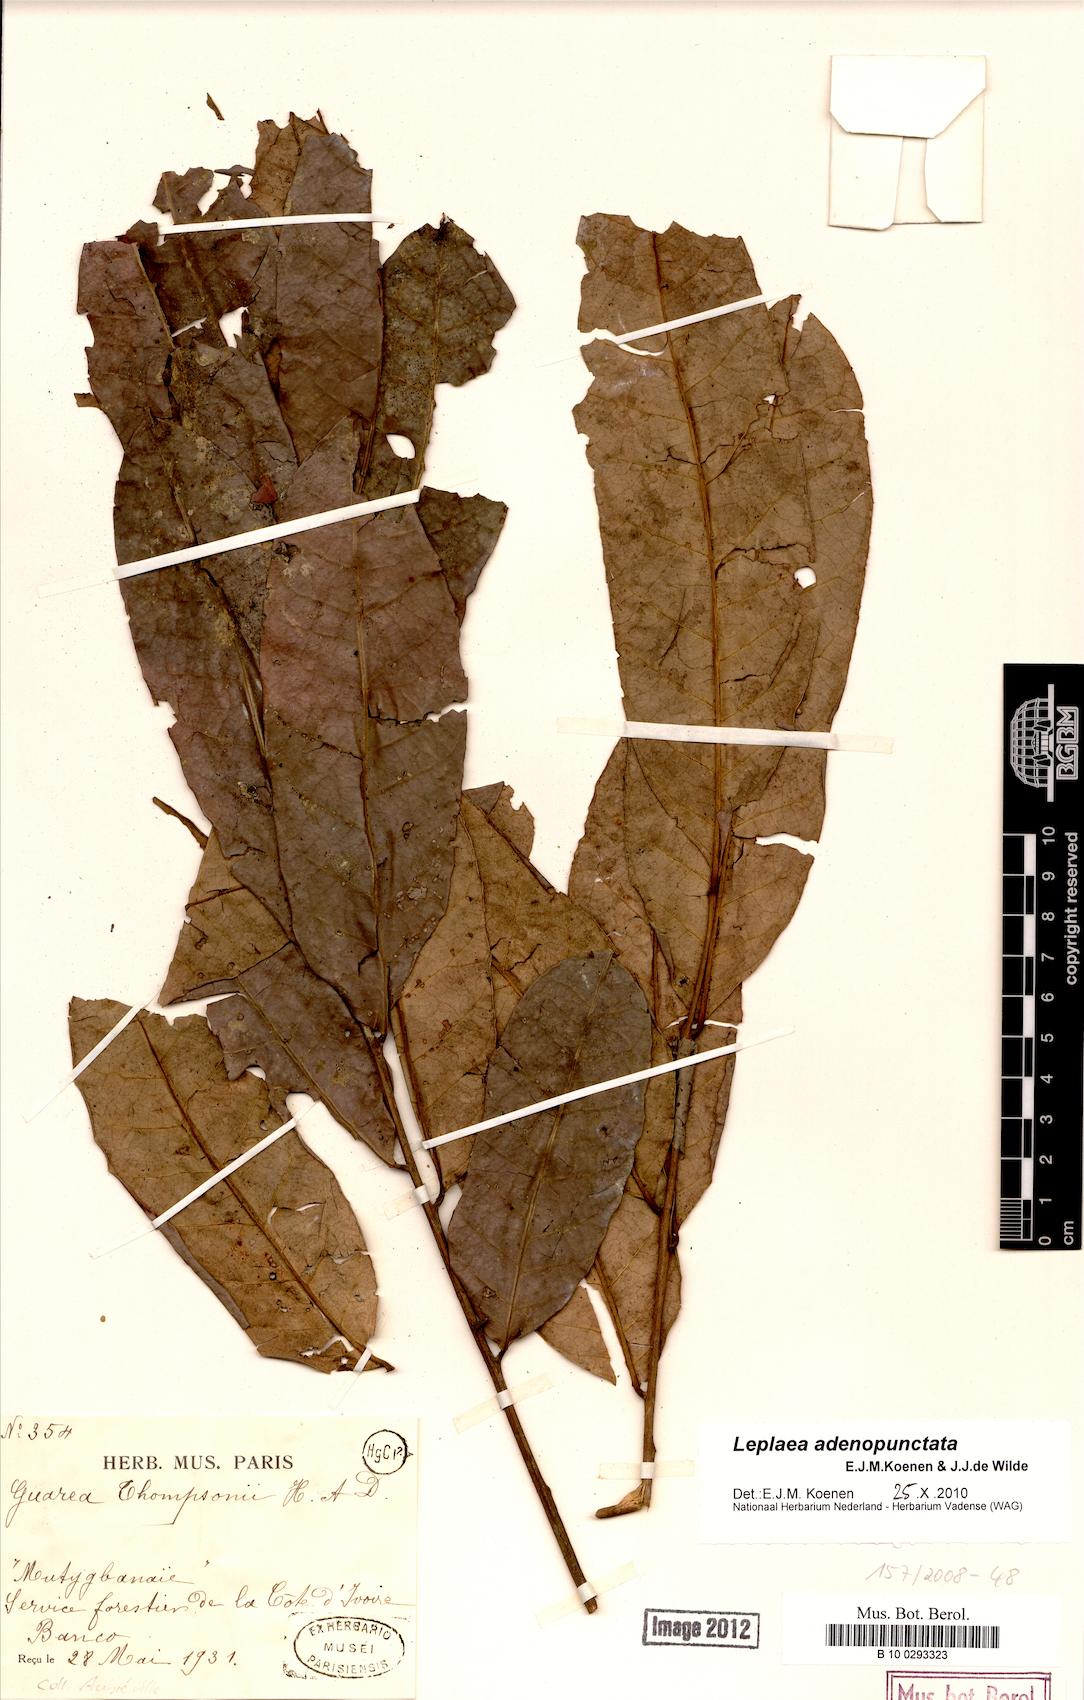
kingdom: Plantae
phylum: Tracheophyta
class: Magnoliopsida
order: Sapindales
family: Meliaceae
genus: Leplaea
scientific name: Leplaea adenopunctata
